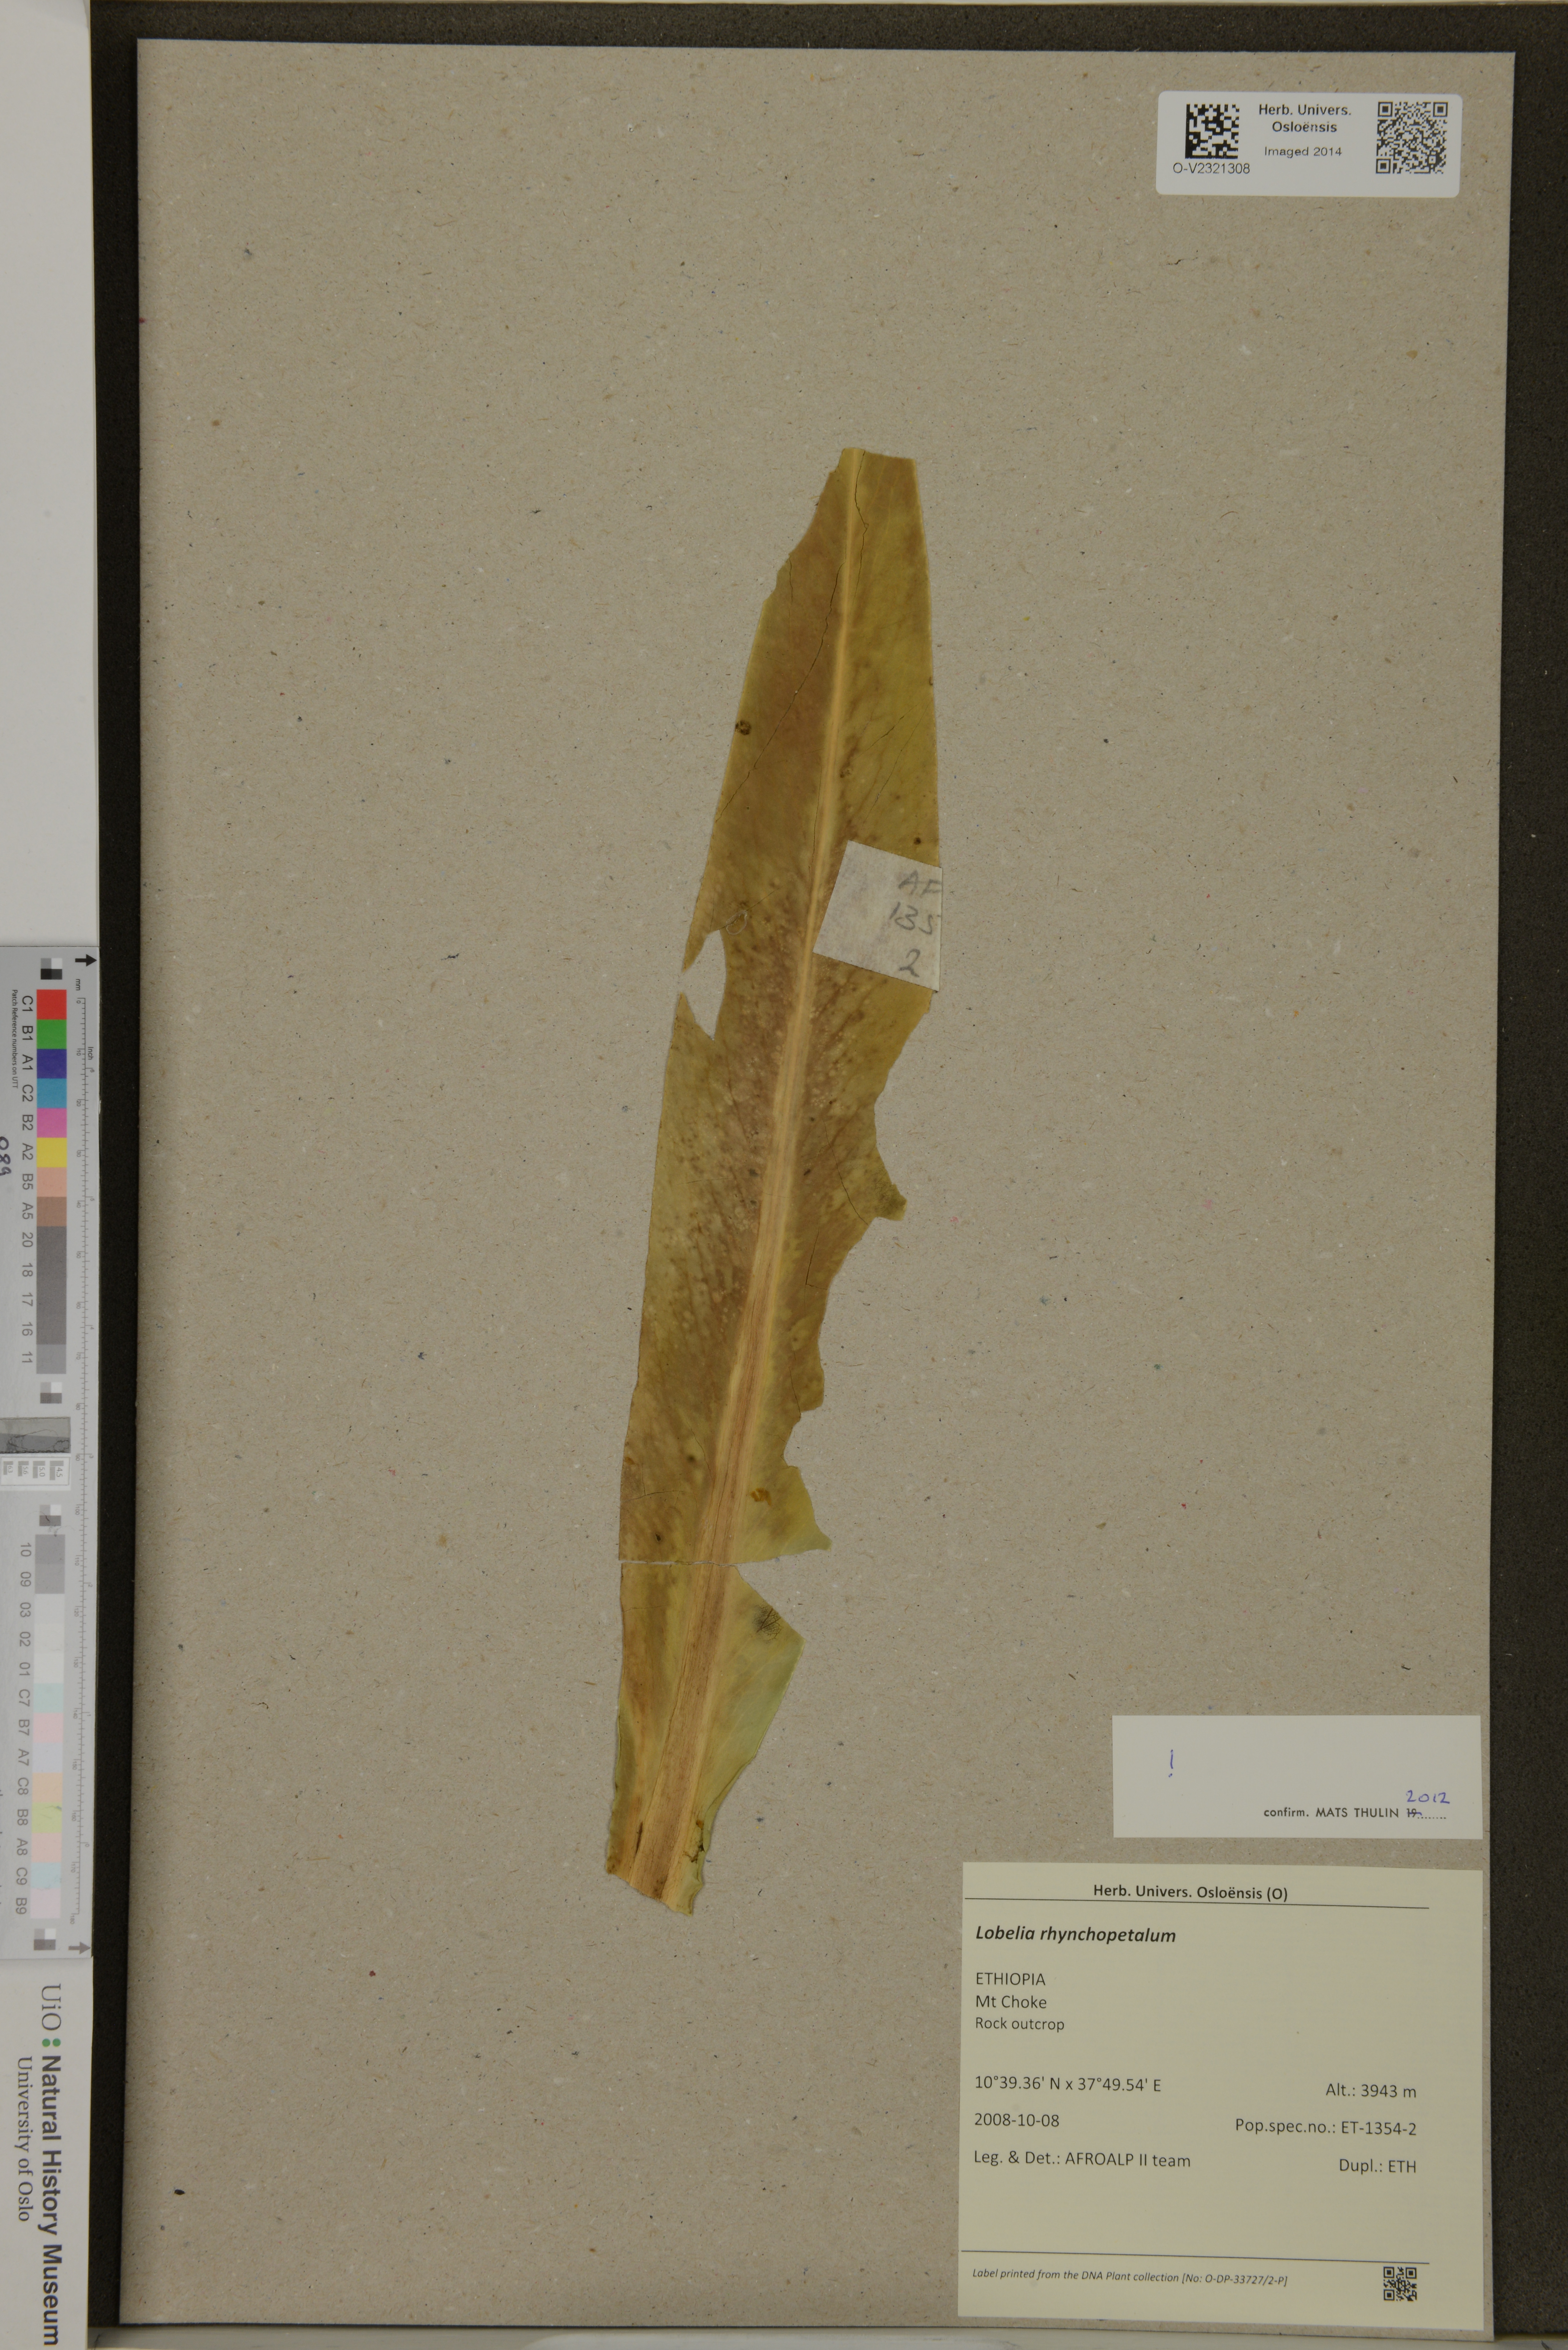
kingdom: Plantae
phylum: Tracheophyta
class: Magnoliopsida
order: Asterales
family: Campanulaceae
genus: Lobelia
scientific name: Lobelia rhynchopetalum
